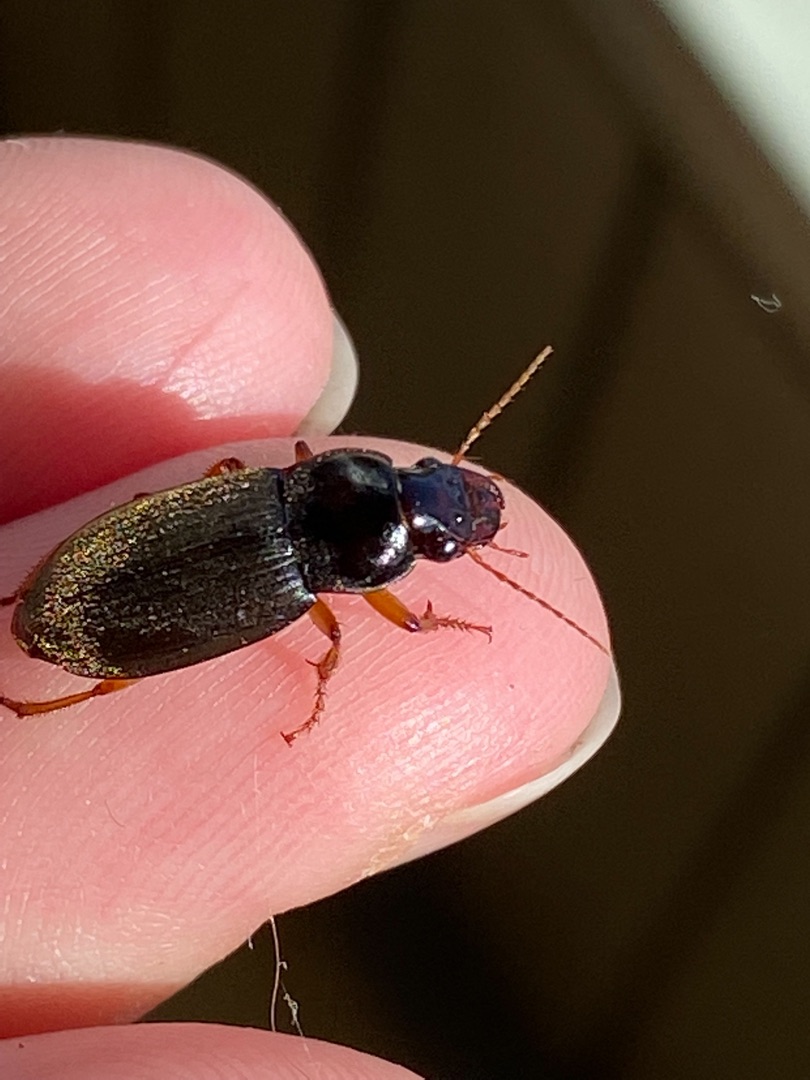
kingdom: Animalia
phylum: Arthropoda
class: Insecta
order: Coleoptera
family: Carabidae
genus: Harpalus
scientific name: Harpalus rufipes
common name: Håret markløber
